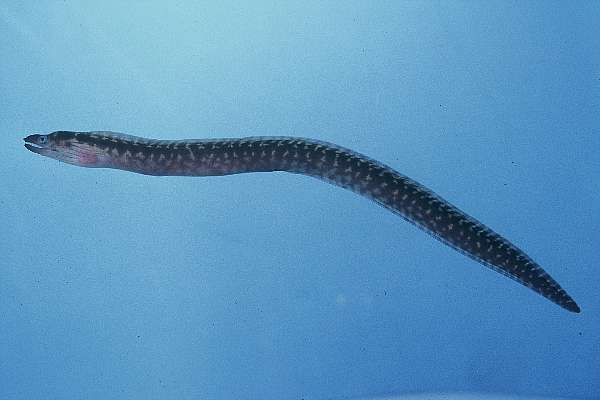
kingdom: Animalia
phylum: Chordata
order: Anguilliformes
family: Muraenidae
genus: Gymnothorax
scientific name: Gymnothorax margaritophorus
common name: Blotch-necked moray
